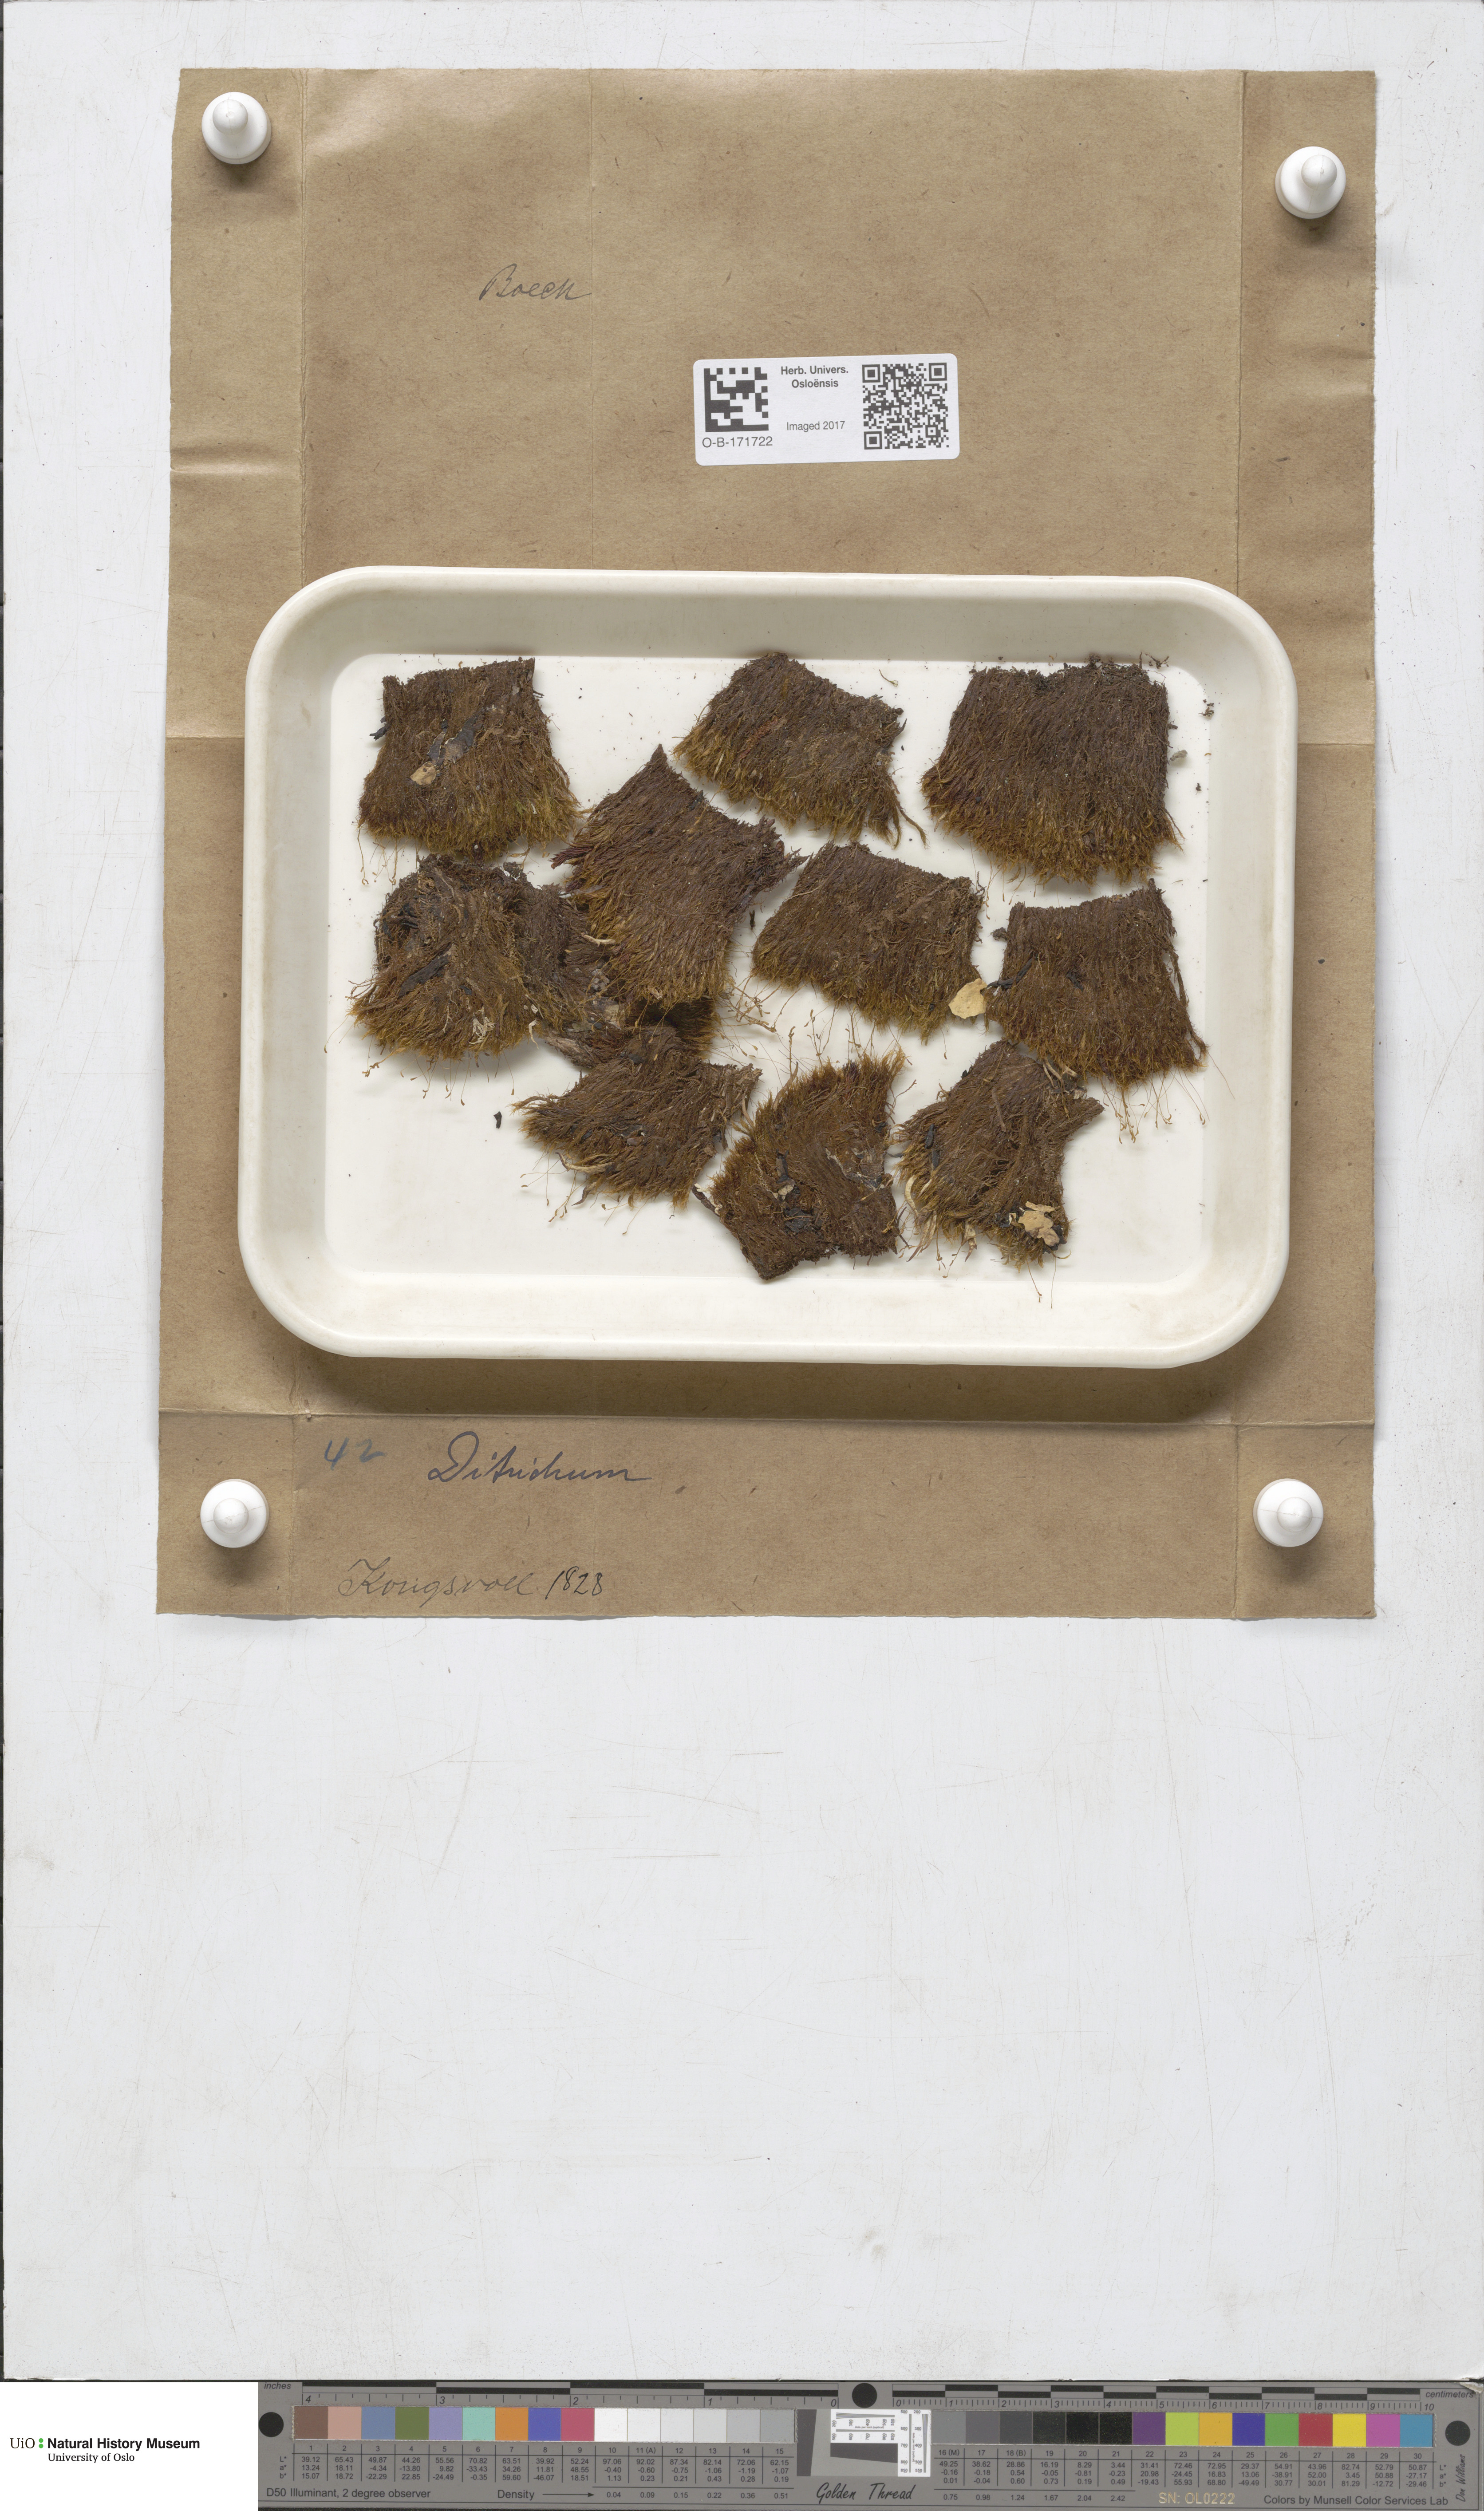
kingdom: Plantae
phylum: Bryophyta
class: Bryopsida
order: Dicranales
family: Ditrichaceae
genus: Ditrichum
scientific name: Ditrichum
